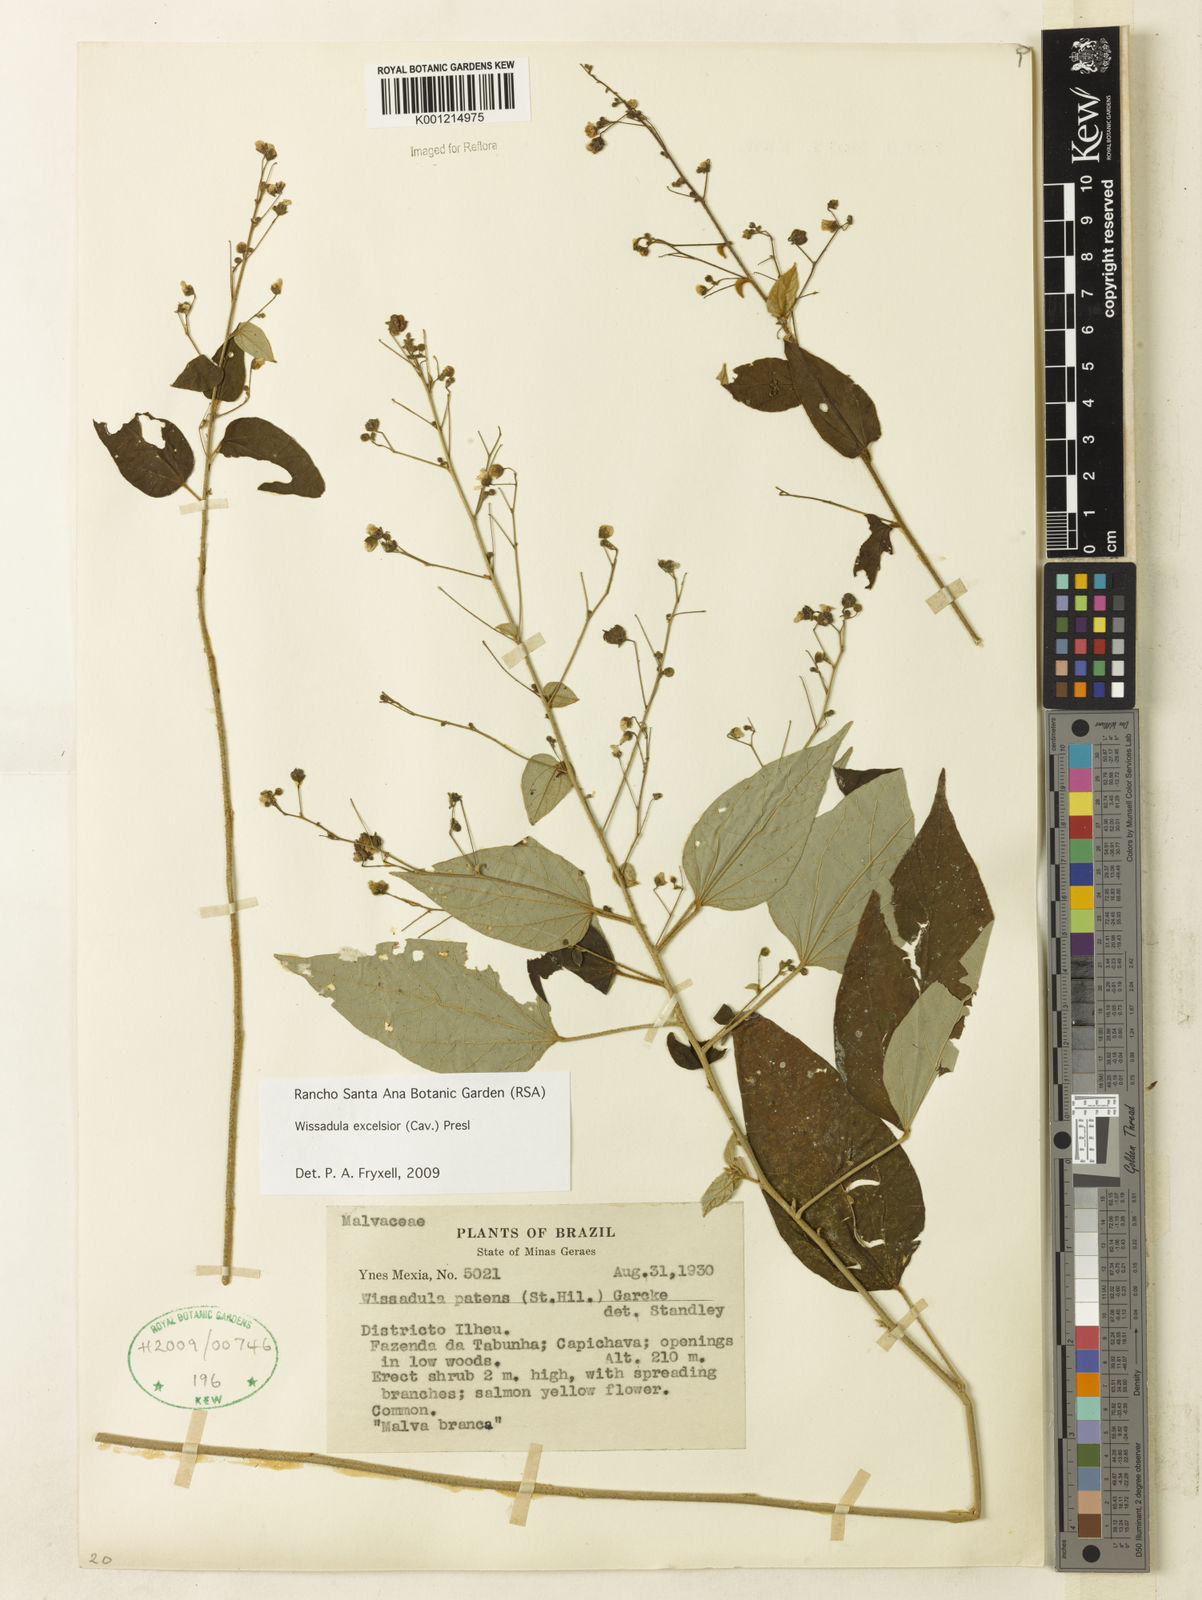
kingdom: Plantae
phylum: Tracheophyta
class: Magnoliopsida
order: Malvales
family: Malvaceae
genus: Wissadula
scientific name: Wissadula excelsior
